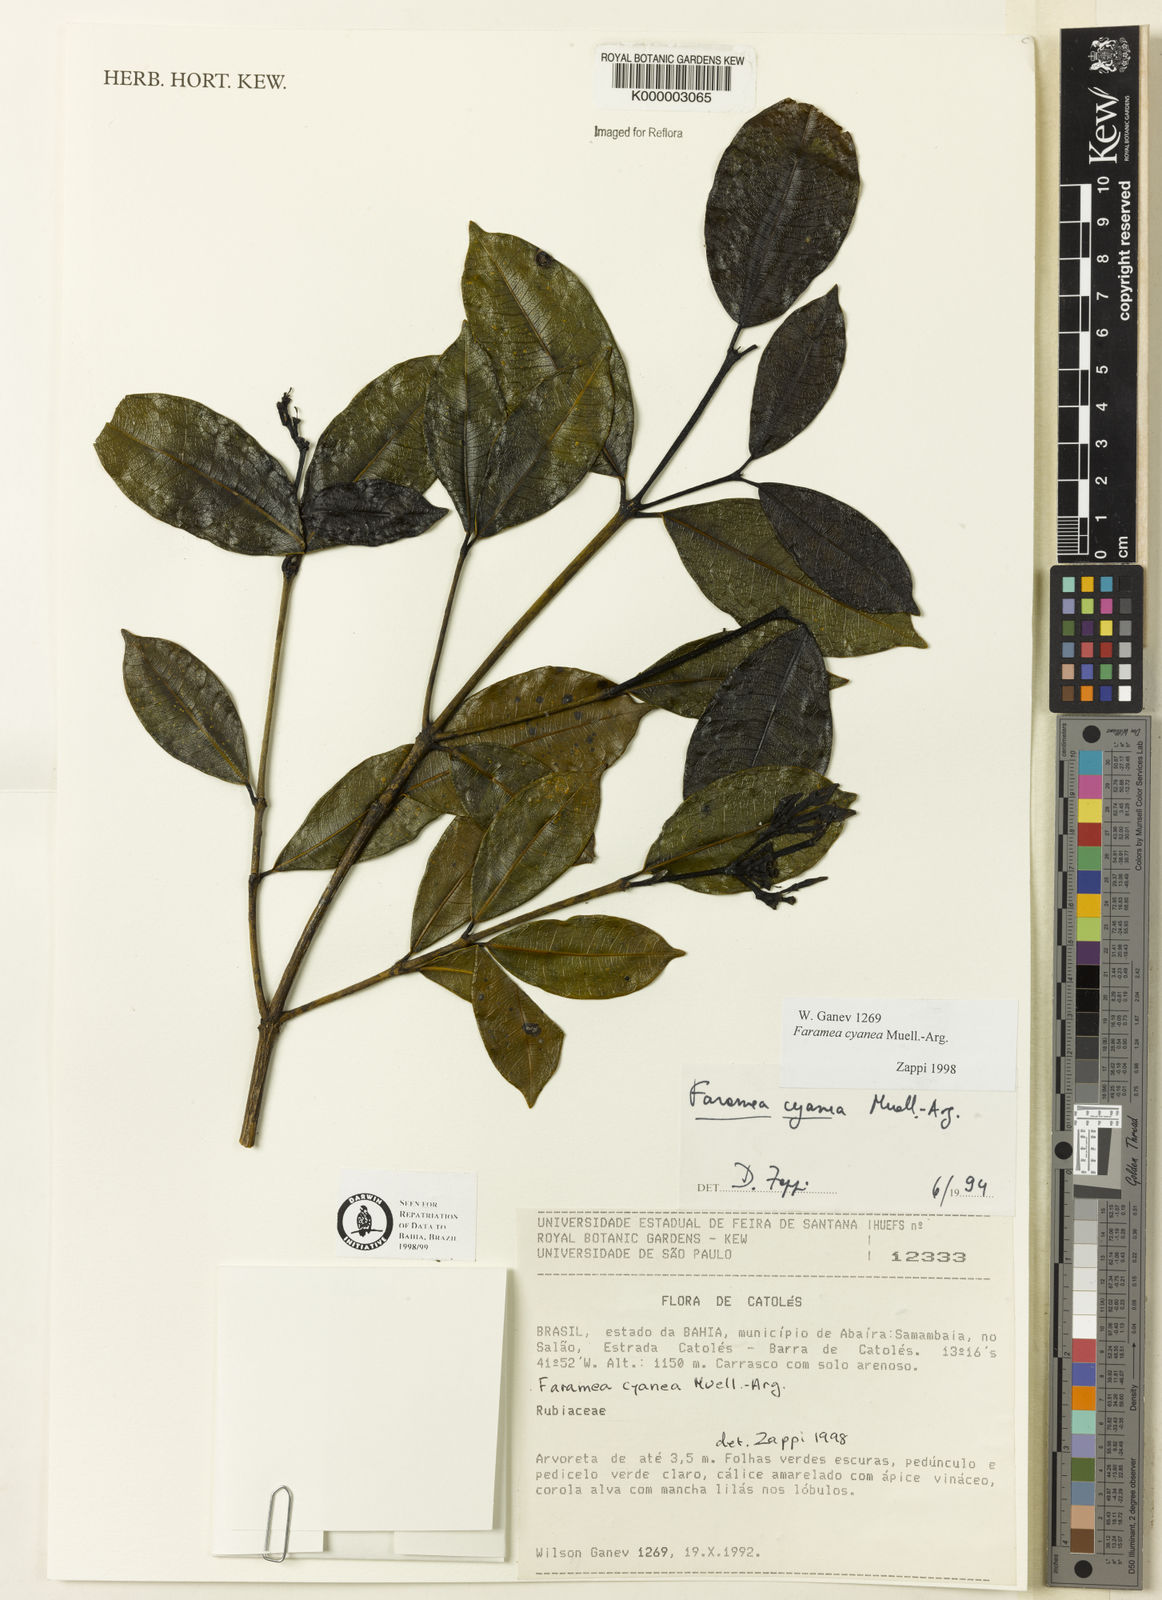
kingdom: Plantae
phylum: Tracheophyta
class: Magnoliopsida
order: Gentianales
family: Rubiaceae
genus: Faramea
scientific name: Faramea nigrescens
